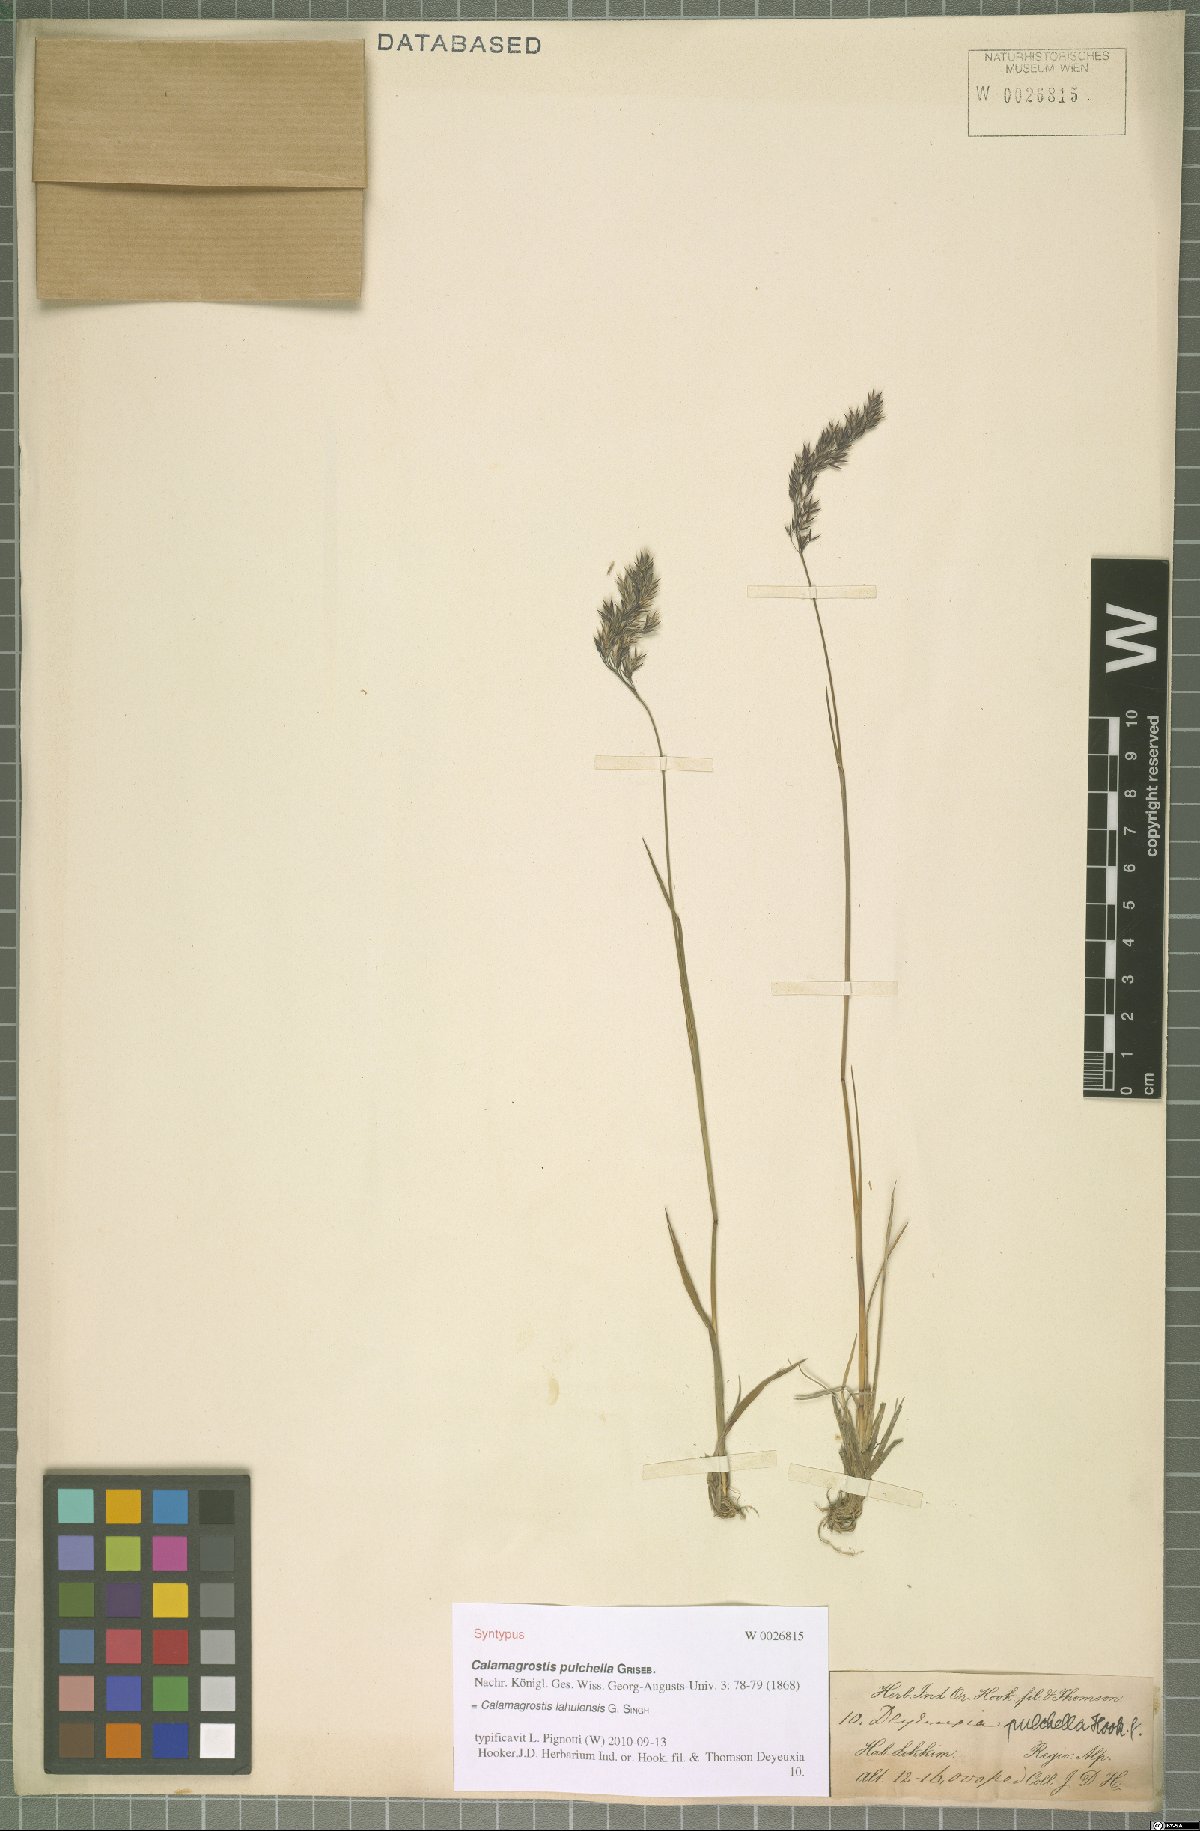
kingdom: Plantae
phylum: Tracheophyta
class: Liliopsida
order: Poales
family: Poaceae
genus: Calamagrostis
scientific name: Calamagrostis lahulensis
